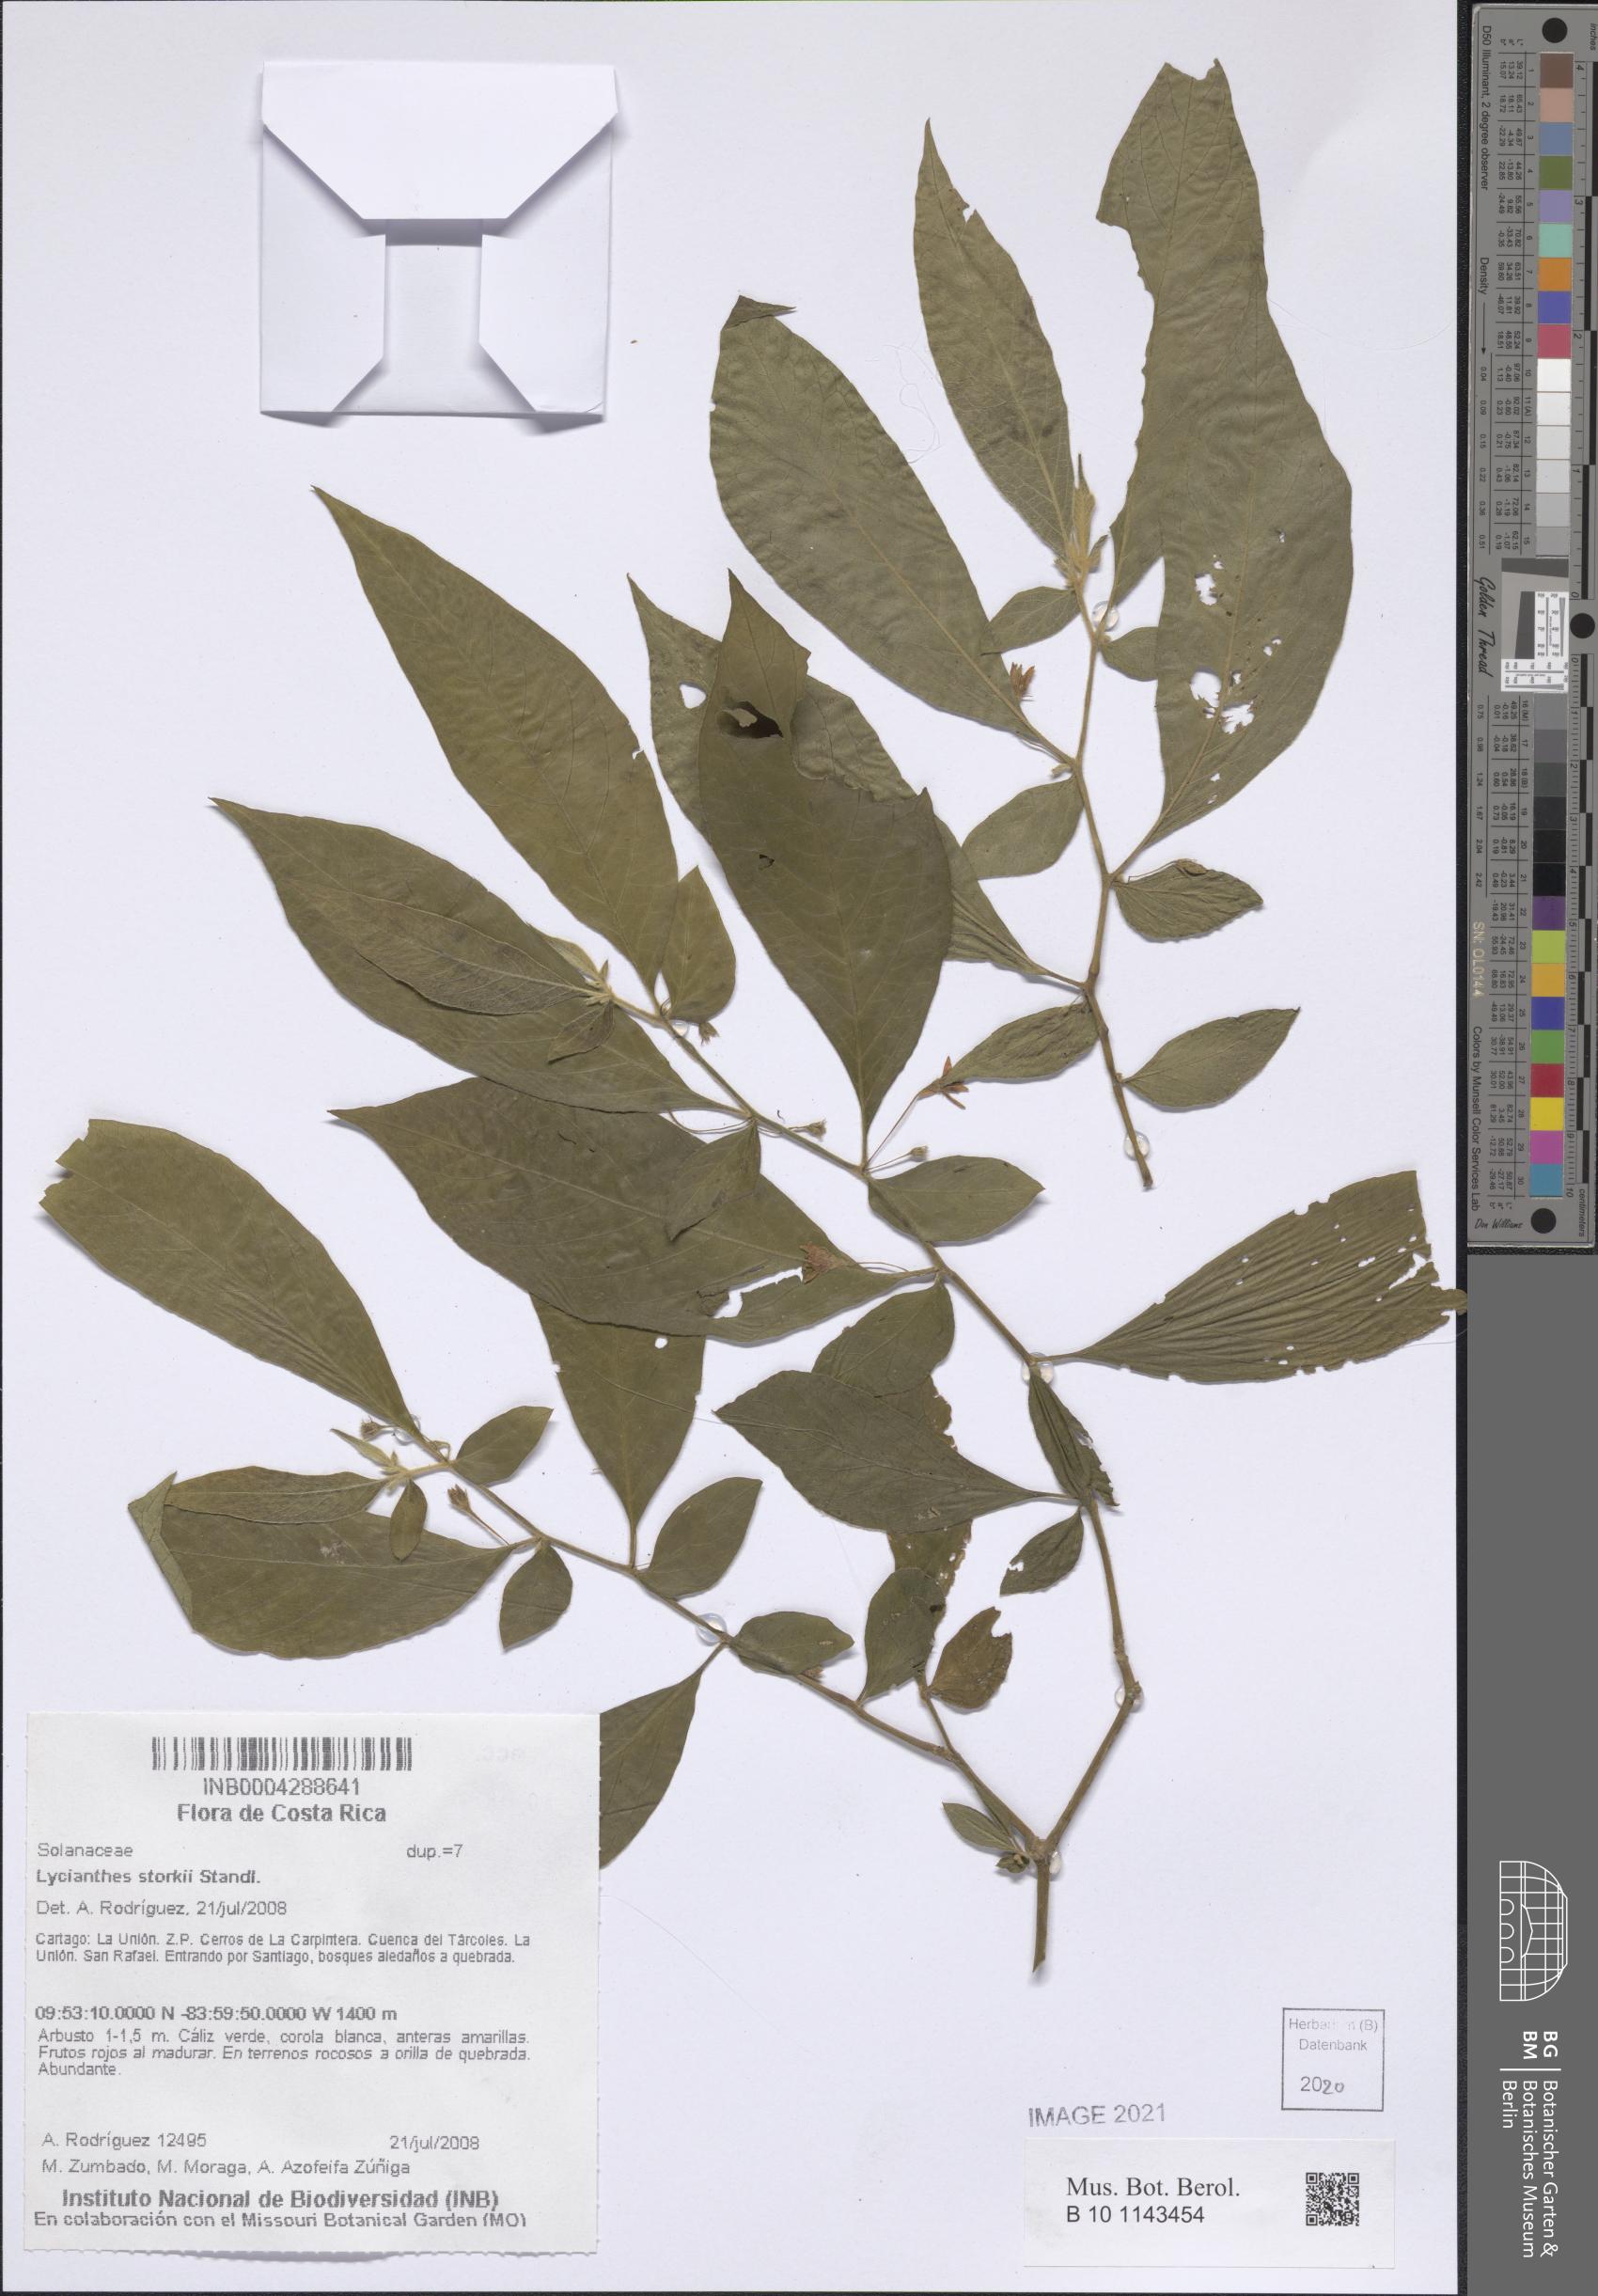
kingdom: Plantae
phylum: Tracheophyta
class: Magnoliopsida
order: Solanales
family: Solanaceae
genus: Lycianthes
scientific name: Lycianthes inconspicua
